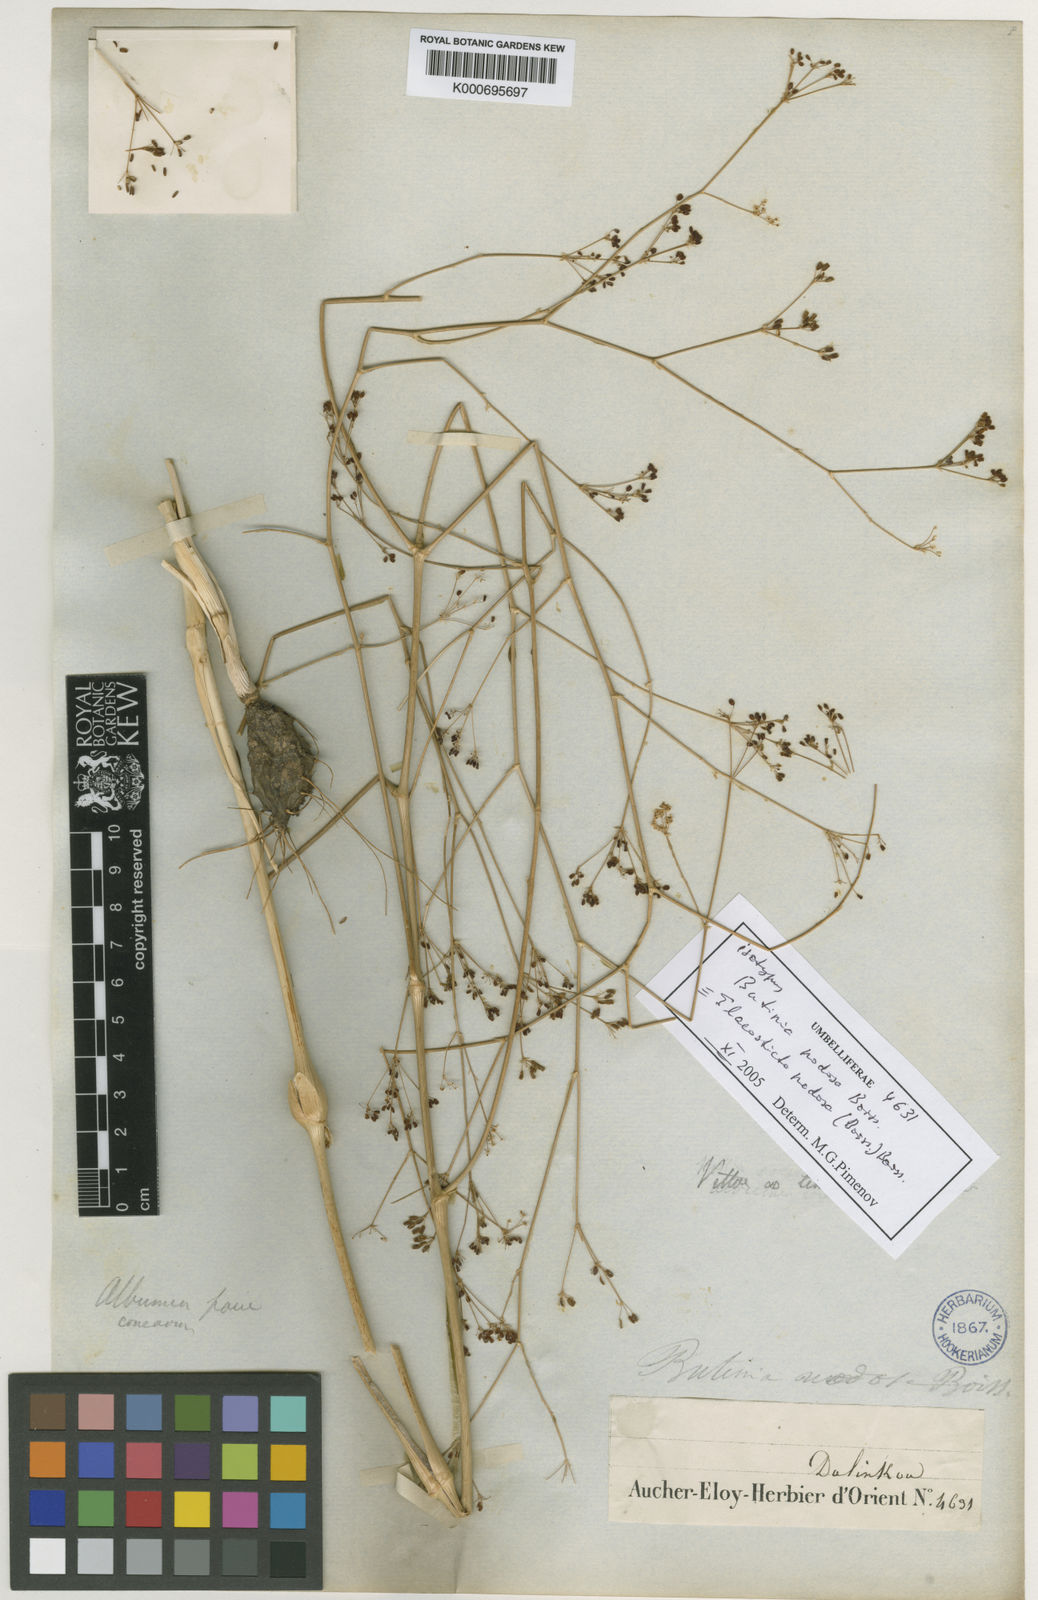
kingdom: Plantae
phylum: Tracheophyta
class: Magnoliopsida
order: Apiales
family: Apiaceae
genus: Elaeosticta
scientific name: Elaeosticta nodosa
